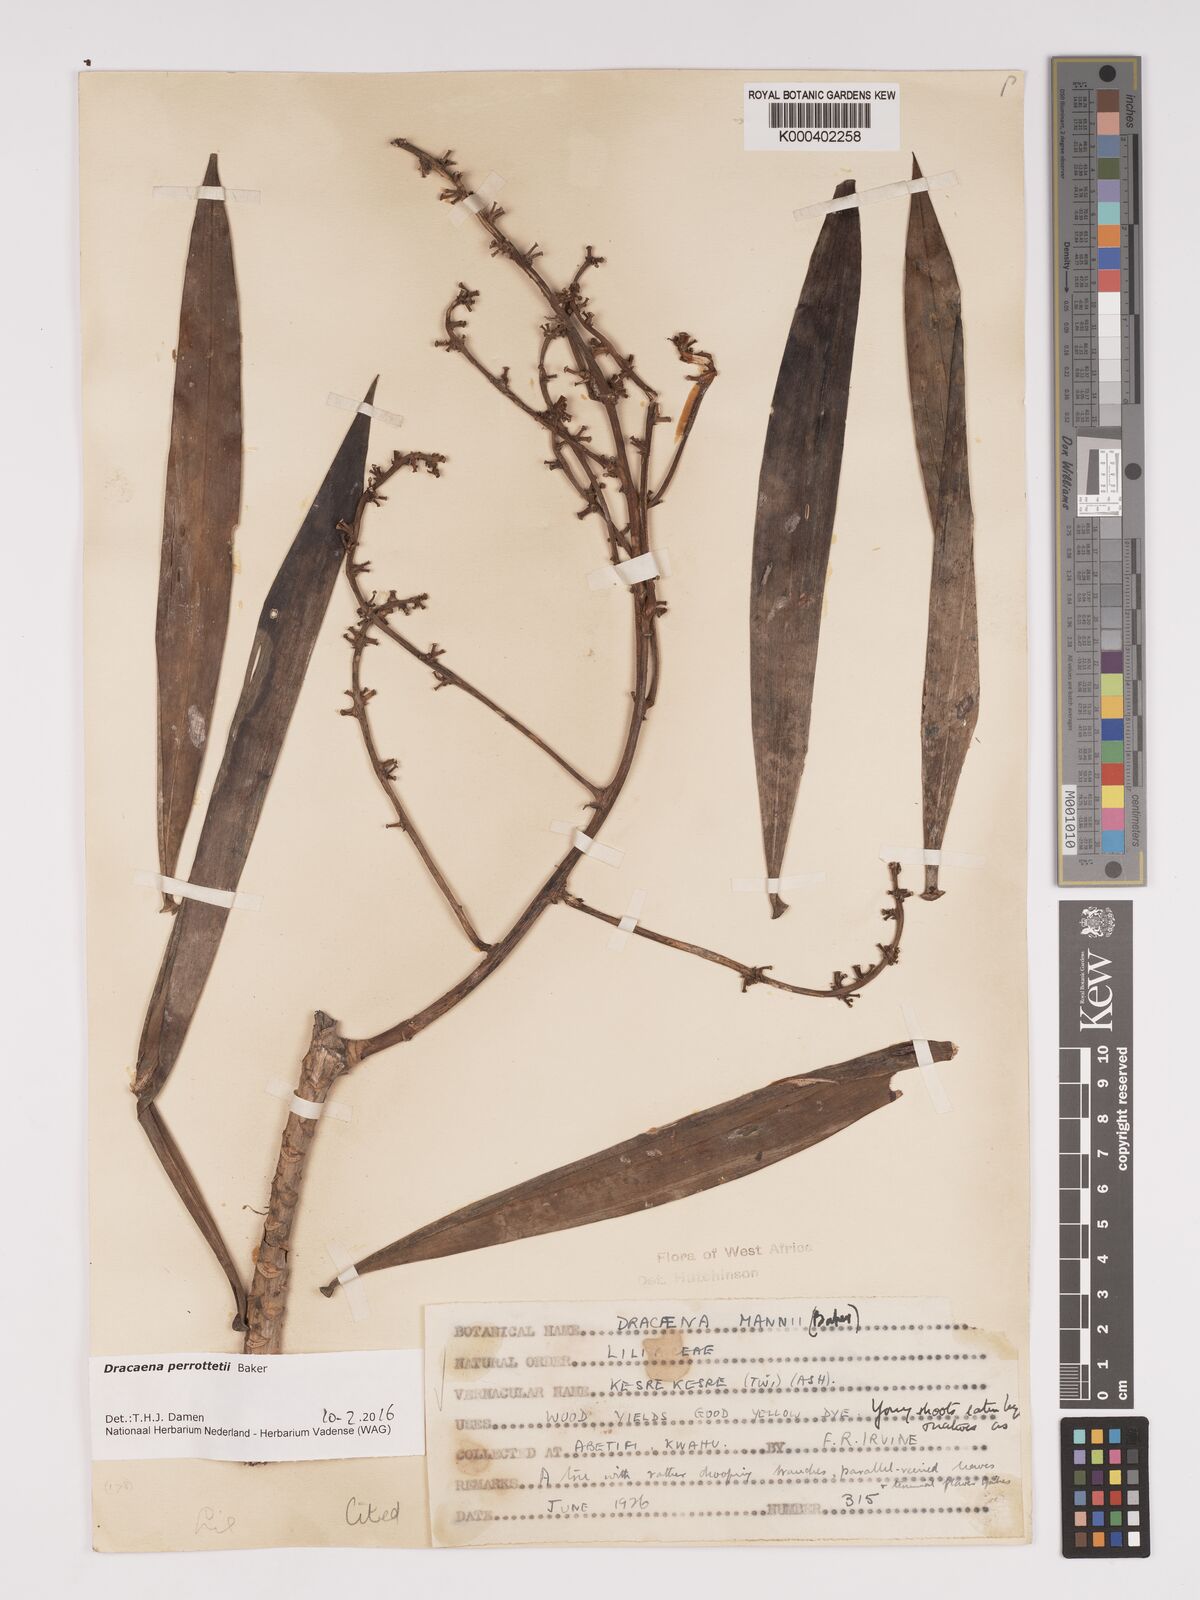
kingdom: Plantae
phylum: Tracheophyta
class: Liliopsida
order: Asparagales
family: Asparagaceae
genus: Dracaena
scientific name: Dracaena perrottetii
